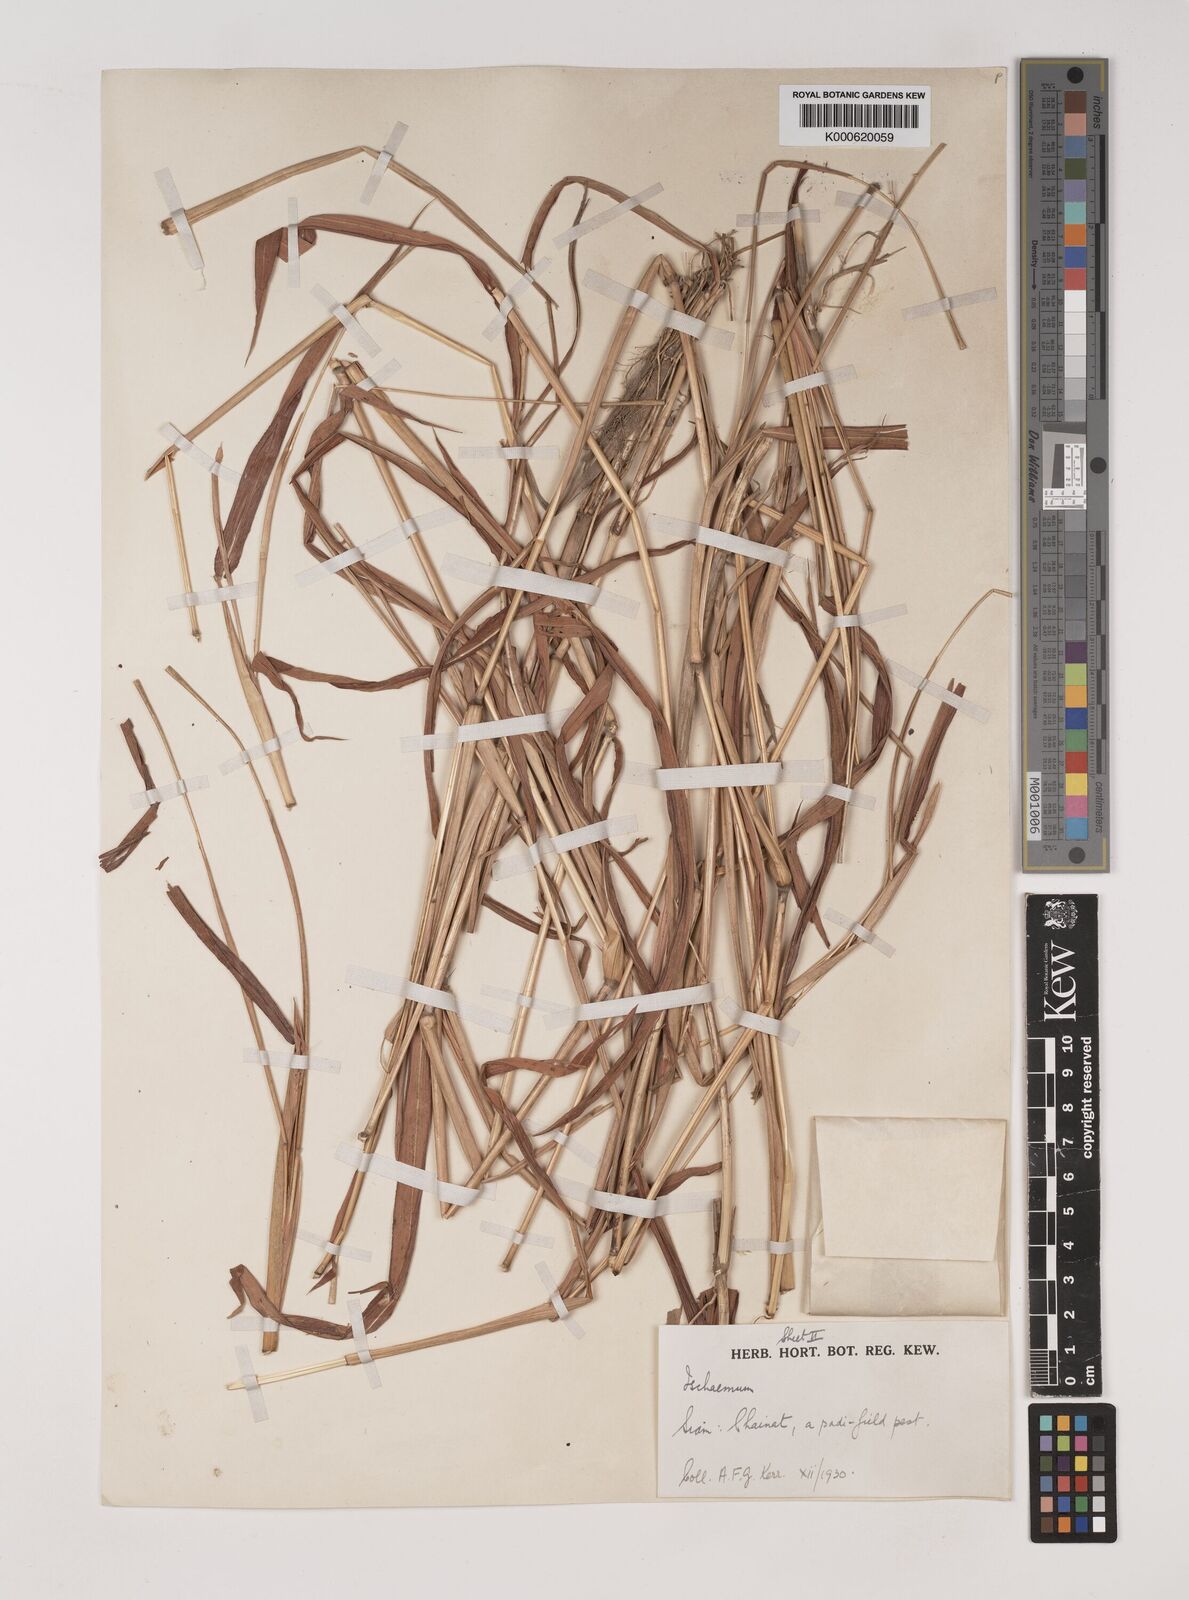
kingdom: Plantae
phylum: Tracheophyta
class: Liliopsida
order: Poales
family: Poaceae
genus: Ischaemum
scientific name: Ischaemum rugosum
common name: Saramatta grass
